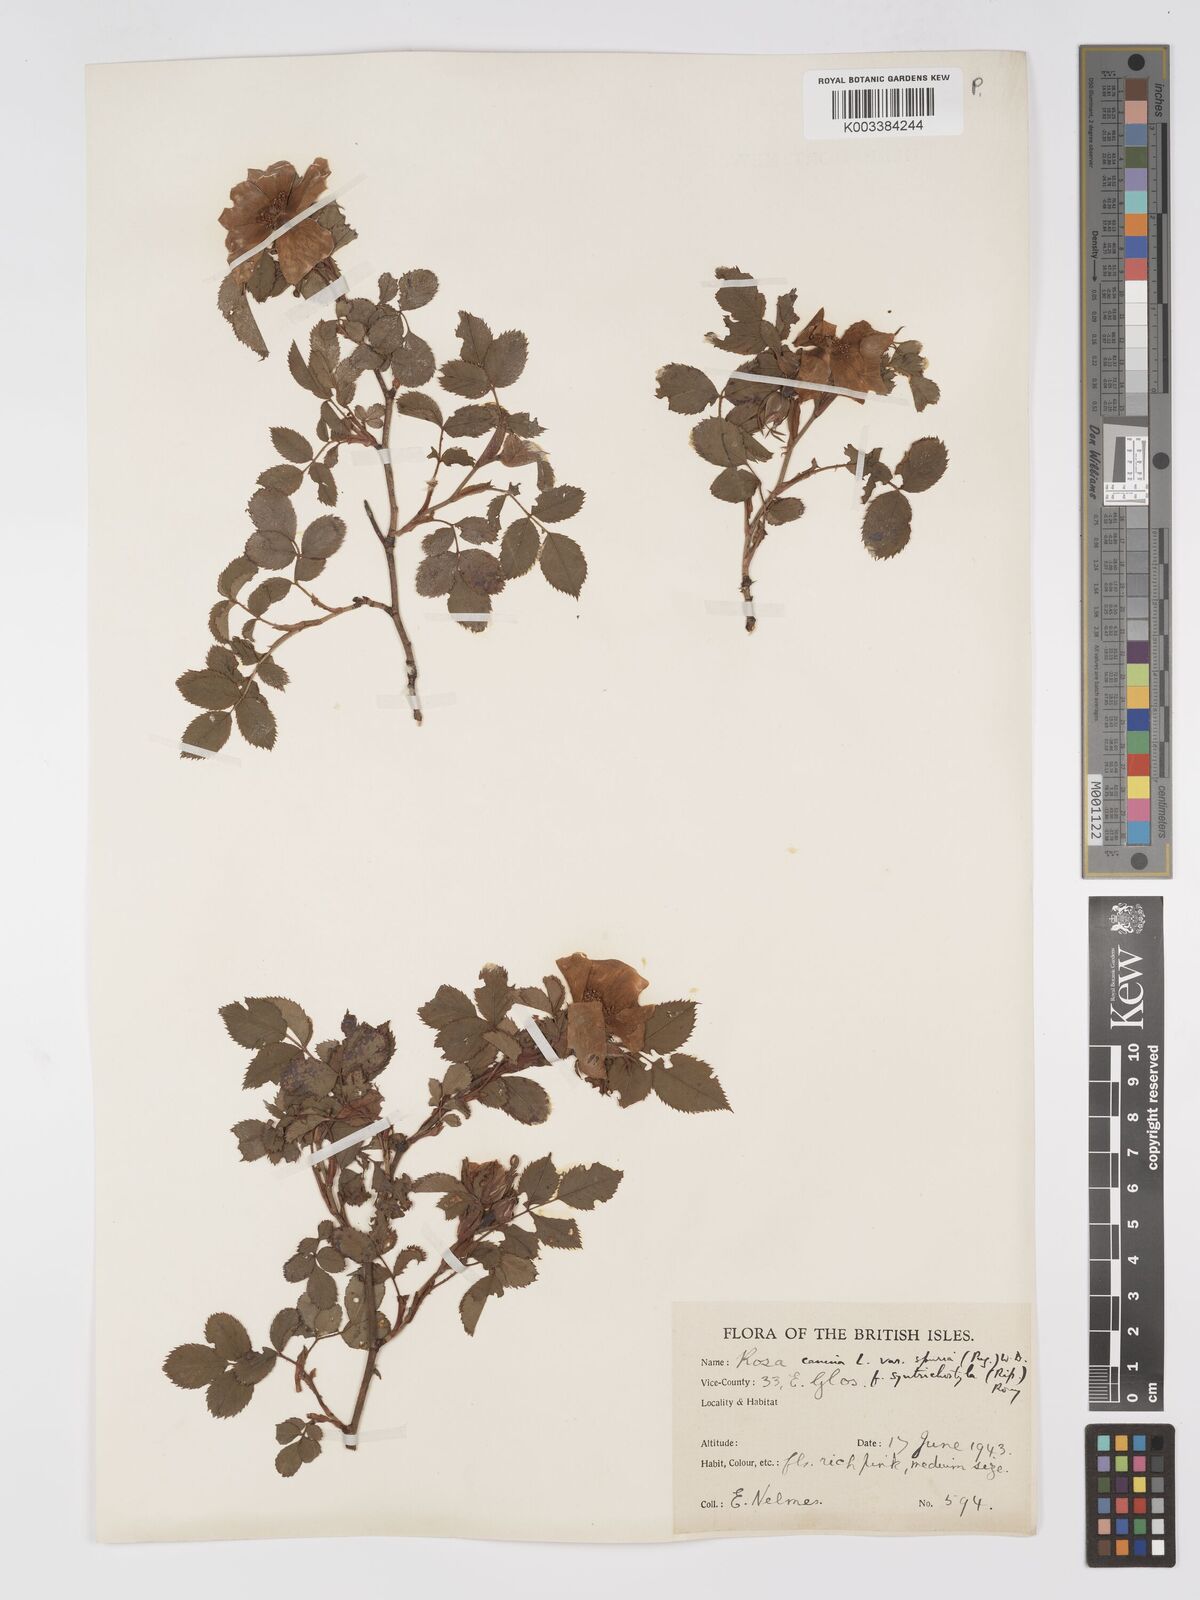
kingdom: Plantae
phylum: Tracheophyta
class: Magnoliopsida
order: Rosales
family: Rosaceae
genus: Rosa
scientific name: Rosa canina
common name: Dog rose
